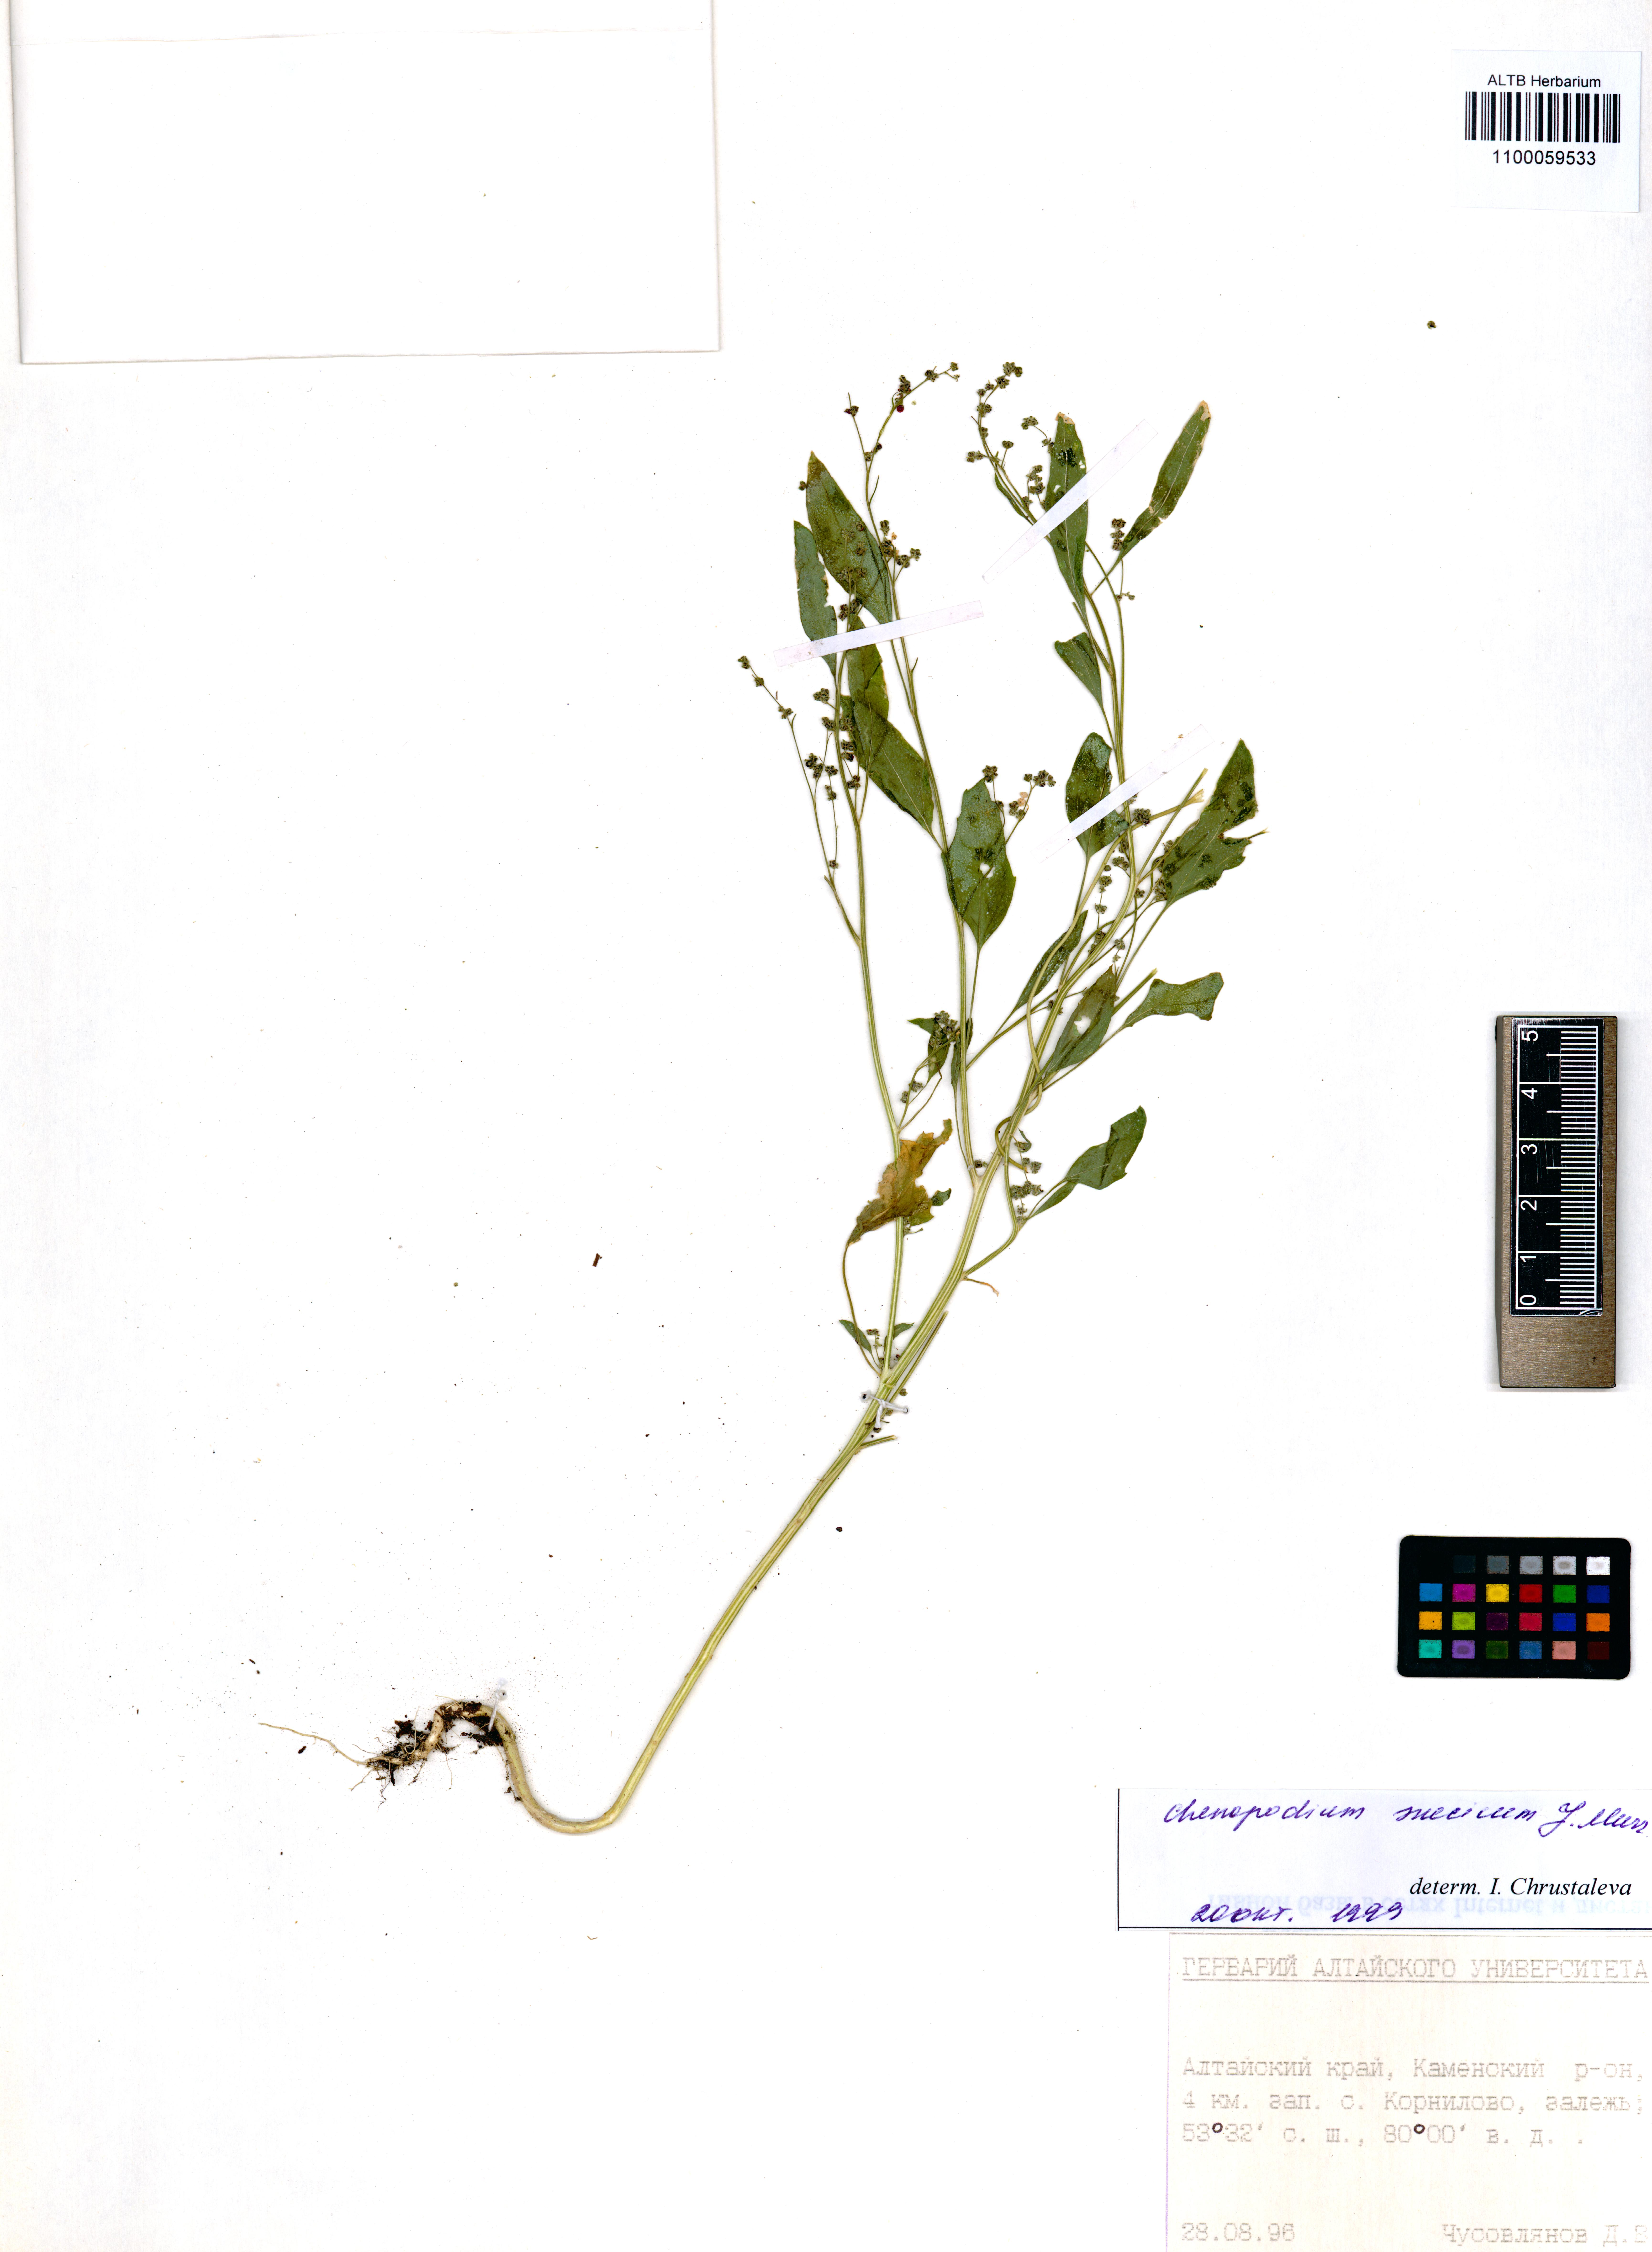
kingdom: Plantae
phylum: Tracheophyta
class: Magnoliopsida
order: Caryophyllales
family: Amaranthaceae
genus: Chenopodium
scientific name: Chenopodium suecicum
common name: Swedish goosefoot
